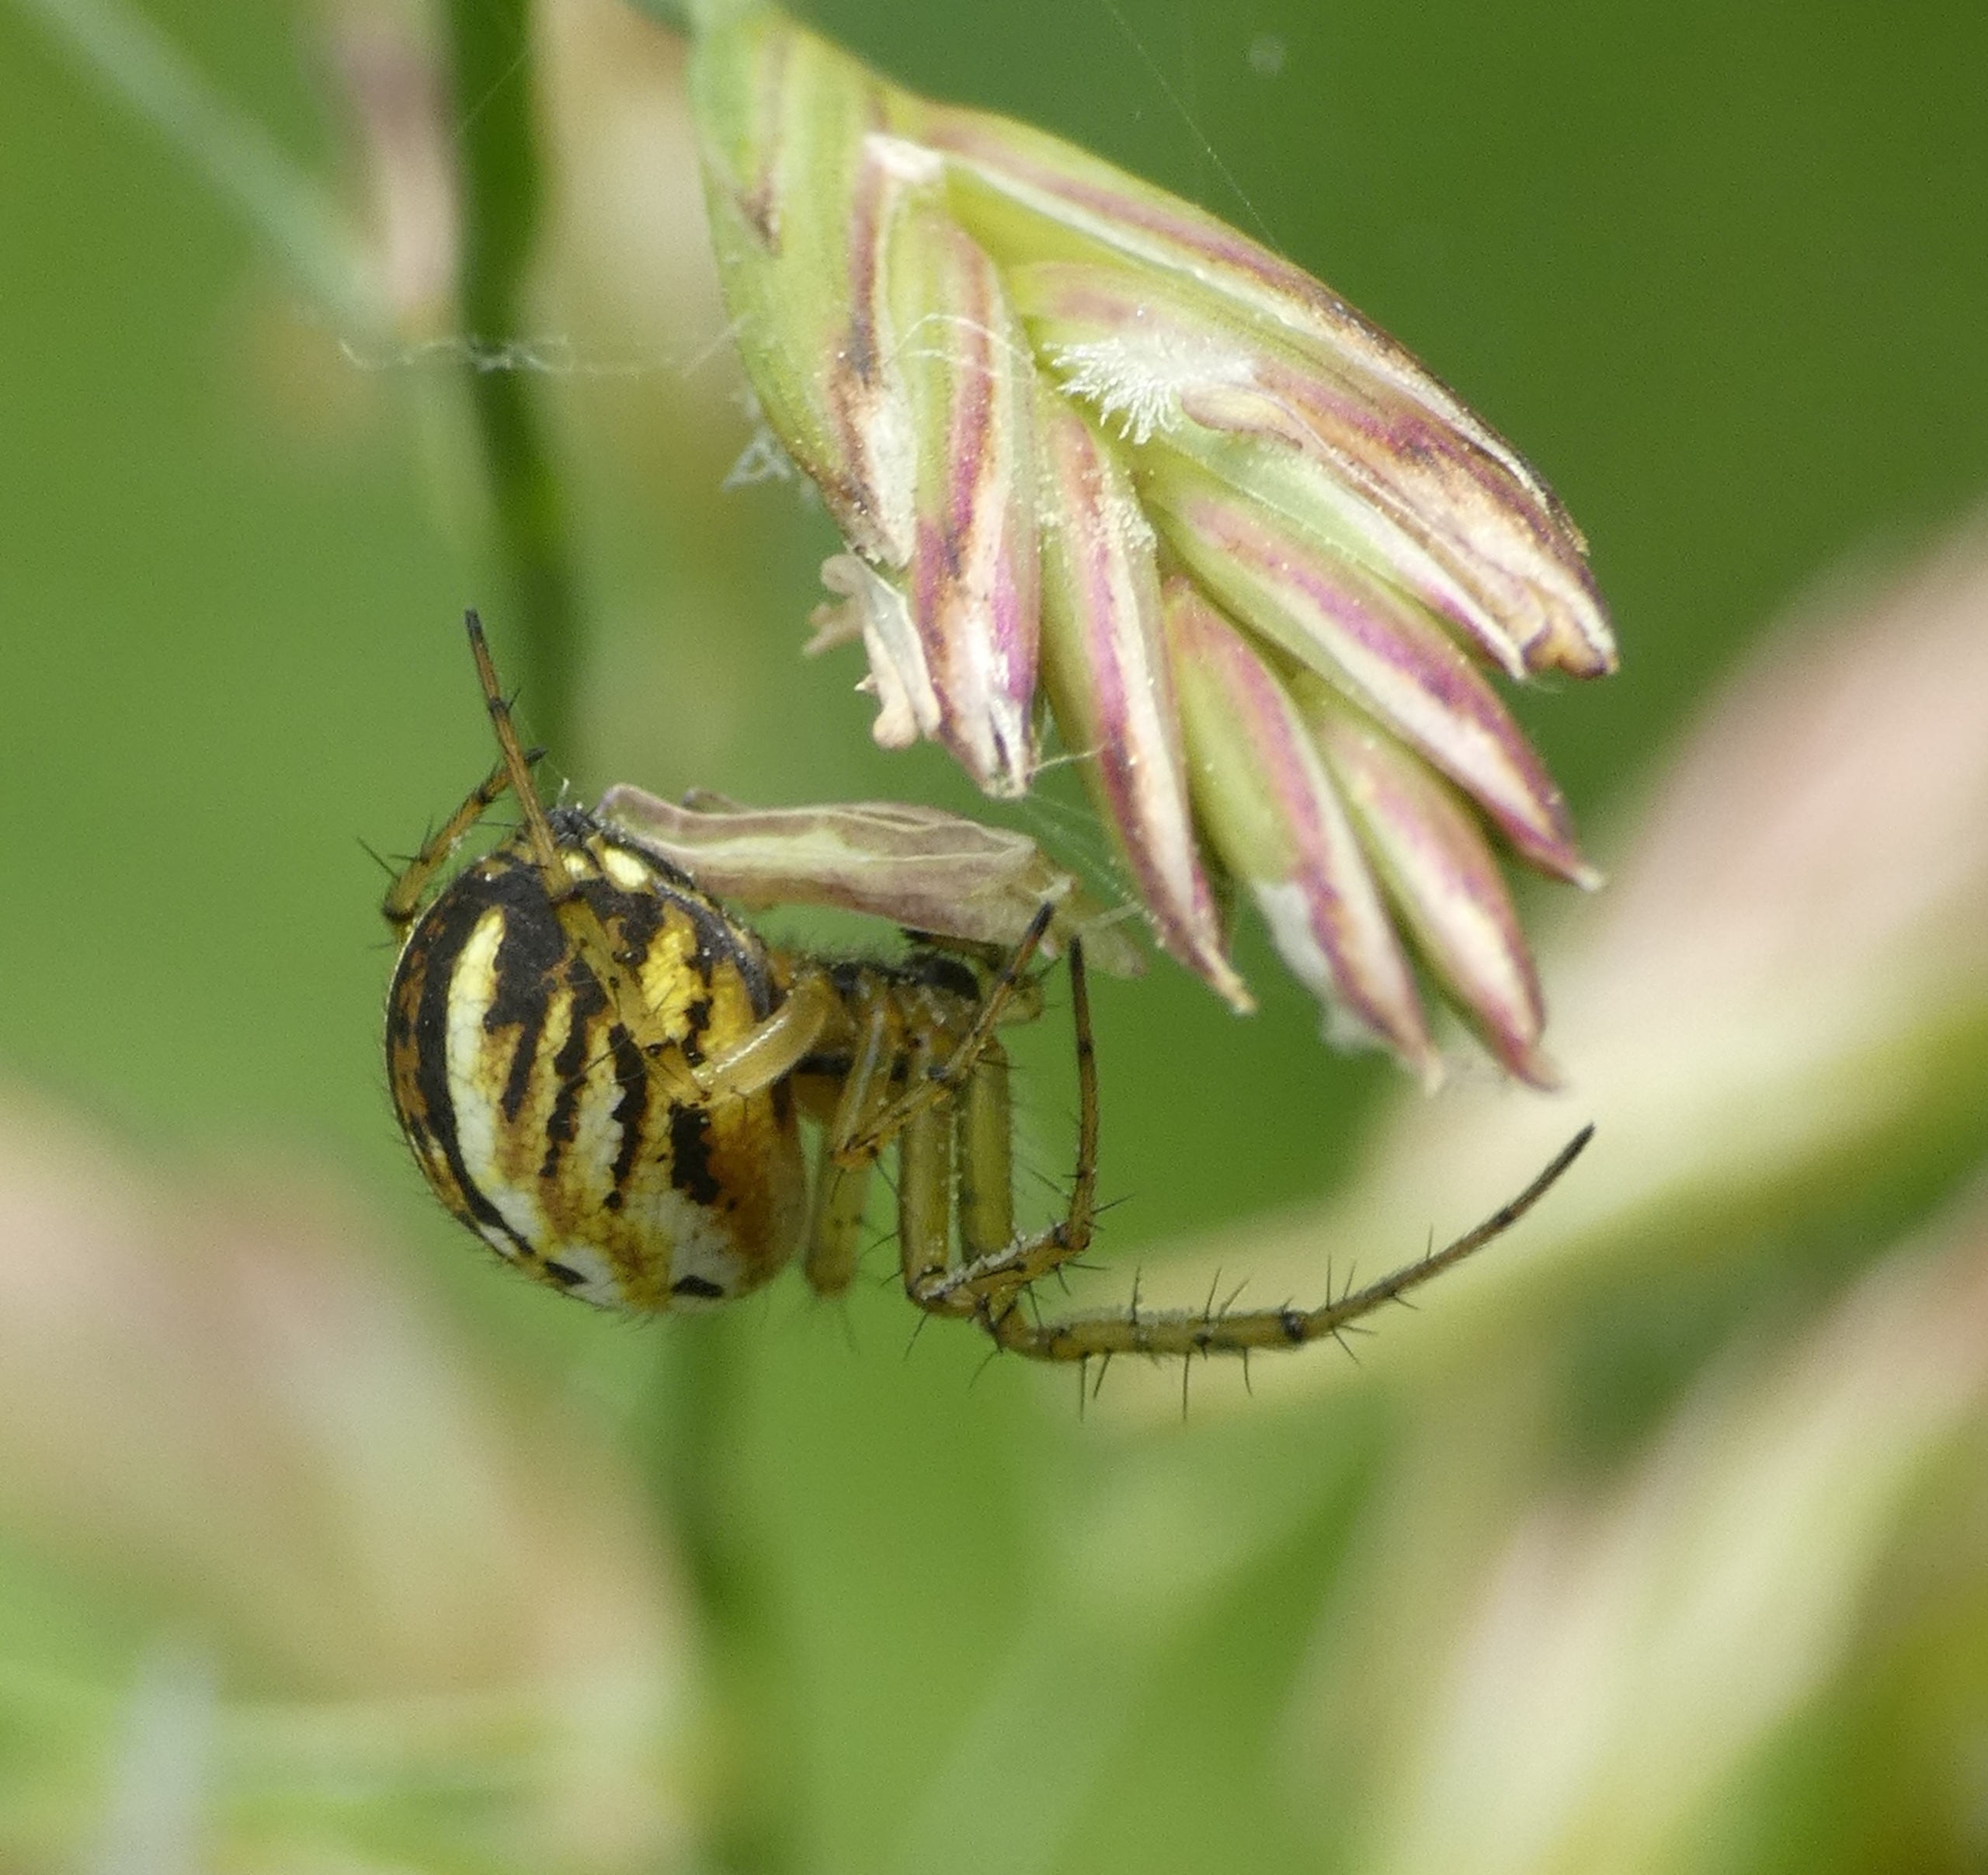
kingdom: Animalia
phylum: Arthropoda
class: Arachnida
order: Araneae
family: Araneidae
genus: Mangora
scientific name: Mangora acalypha
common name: Sortstribet hedehjulspinder
